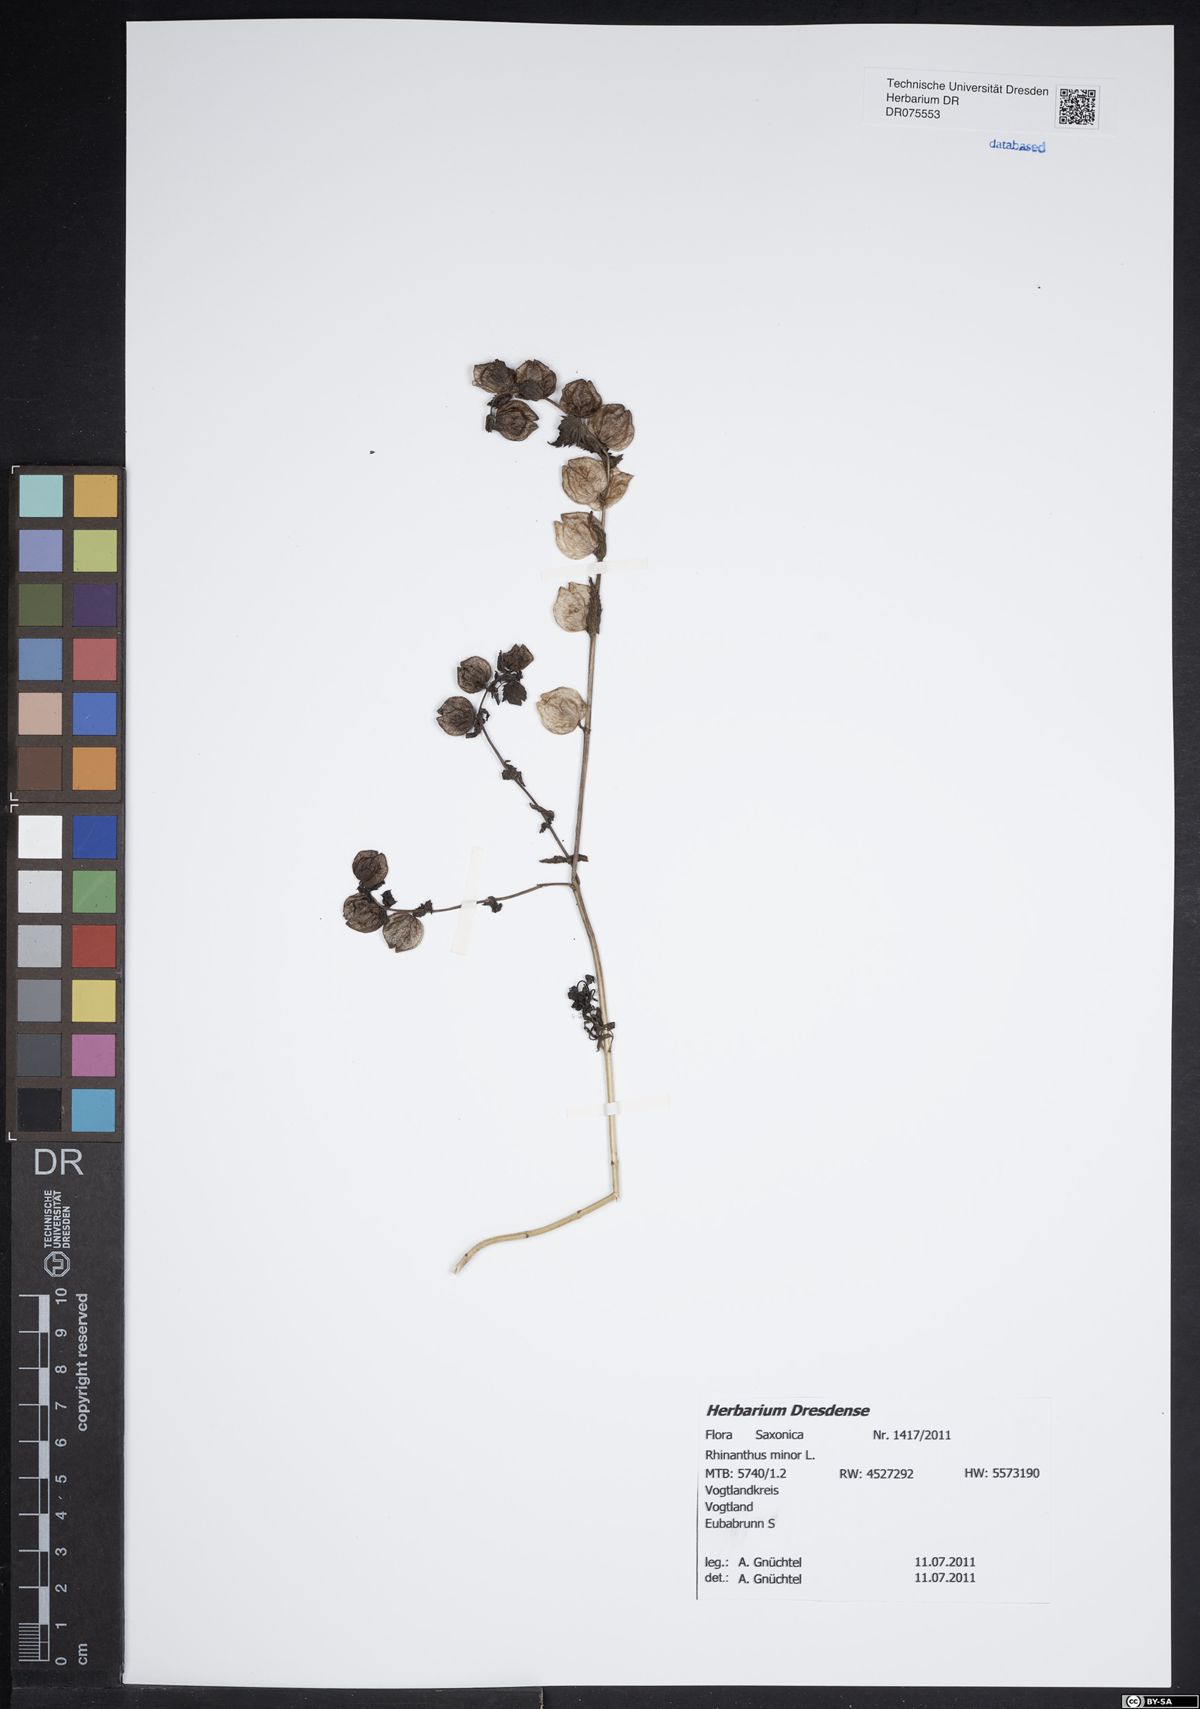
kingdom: Plantae
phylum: Tracheophyta
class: Magnoliopsida
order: Lamiales
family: Orobanchaceae
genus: Rhinanthus
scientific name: Rhinanthus minor
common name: Yellow-rattle
